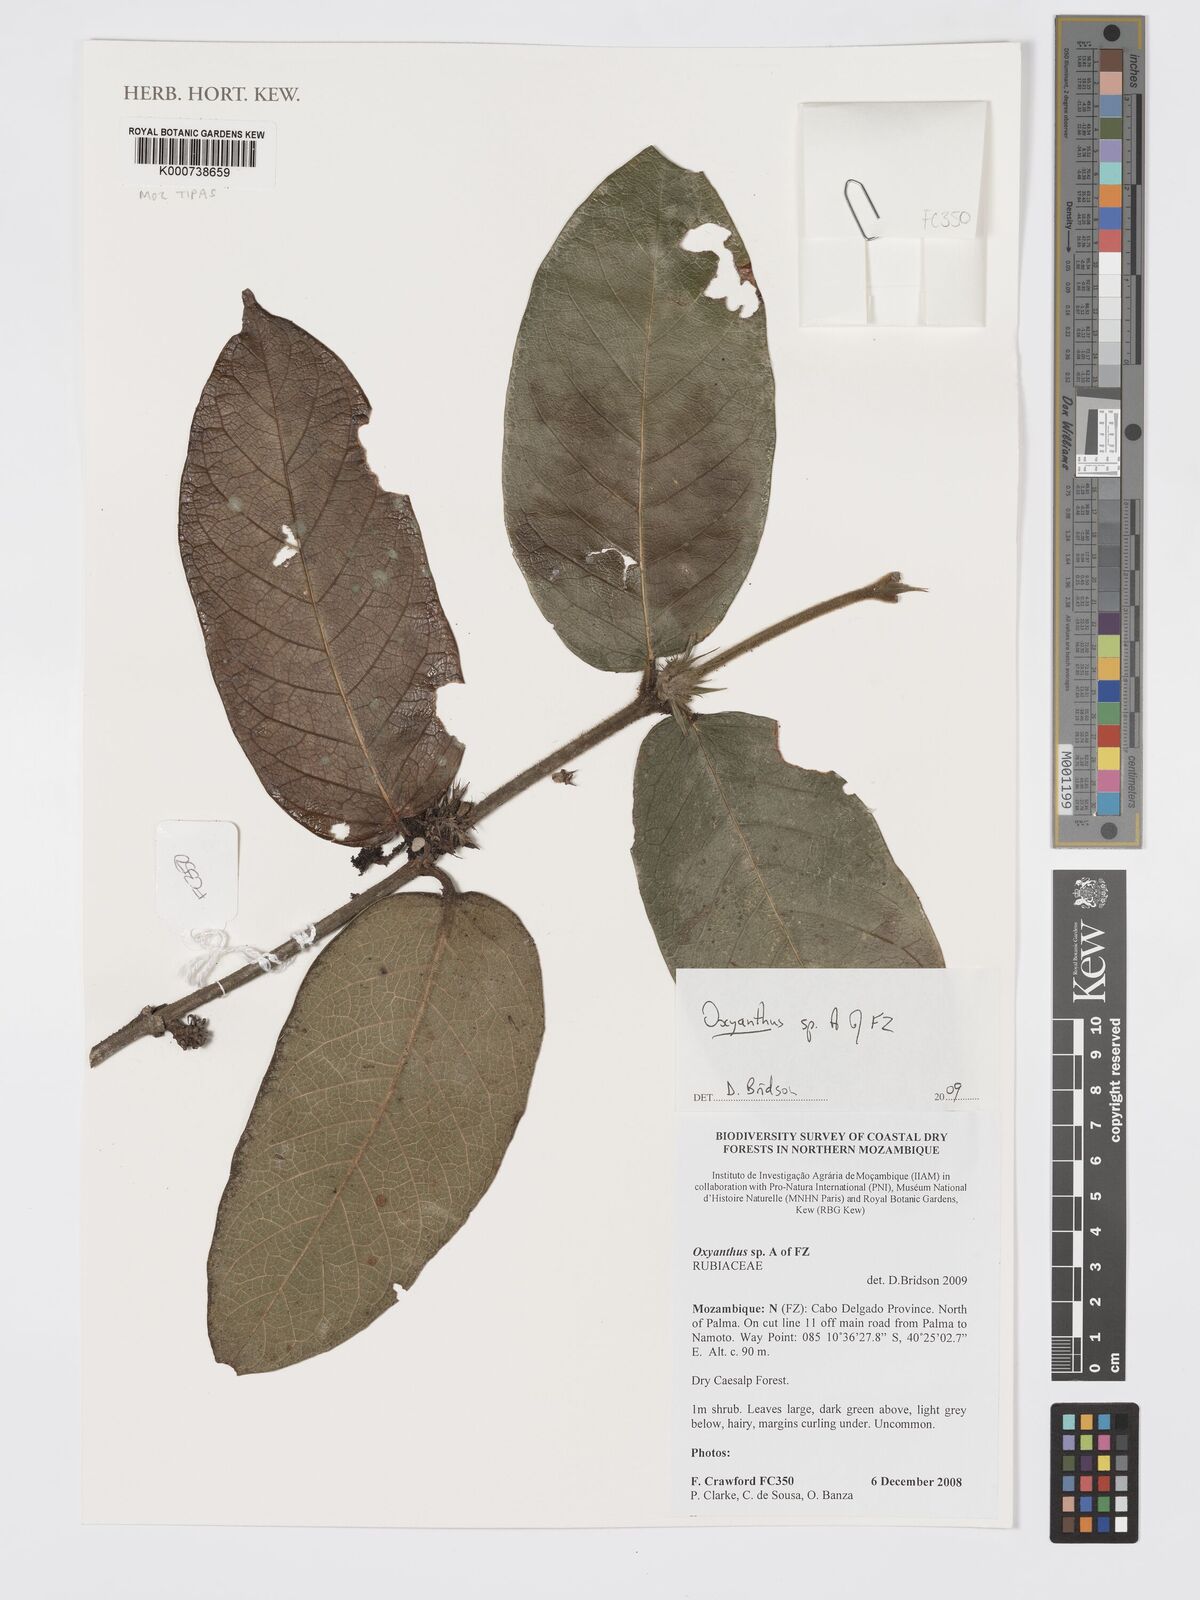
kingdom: Plantae
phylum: Tracheophyta
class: Magnoliopsida
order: Gentianales
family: Rubiaceae
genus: Oxyanthus
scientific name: Oxyanthus strigosus
